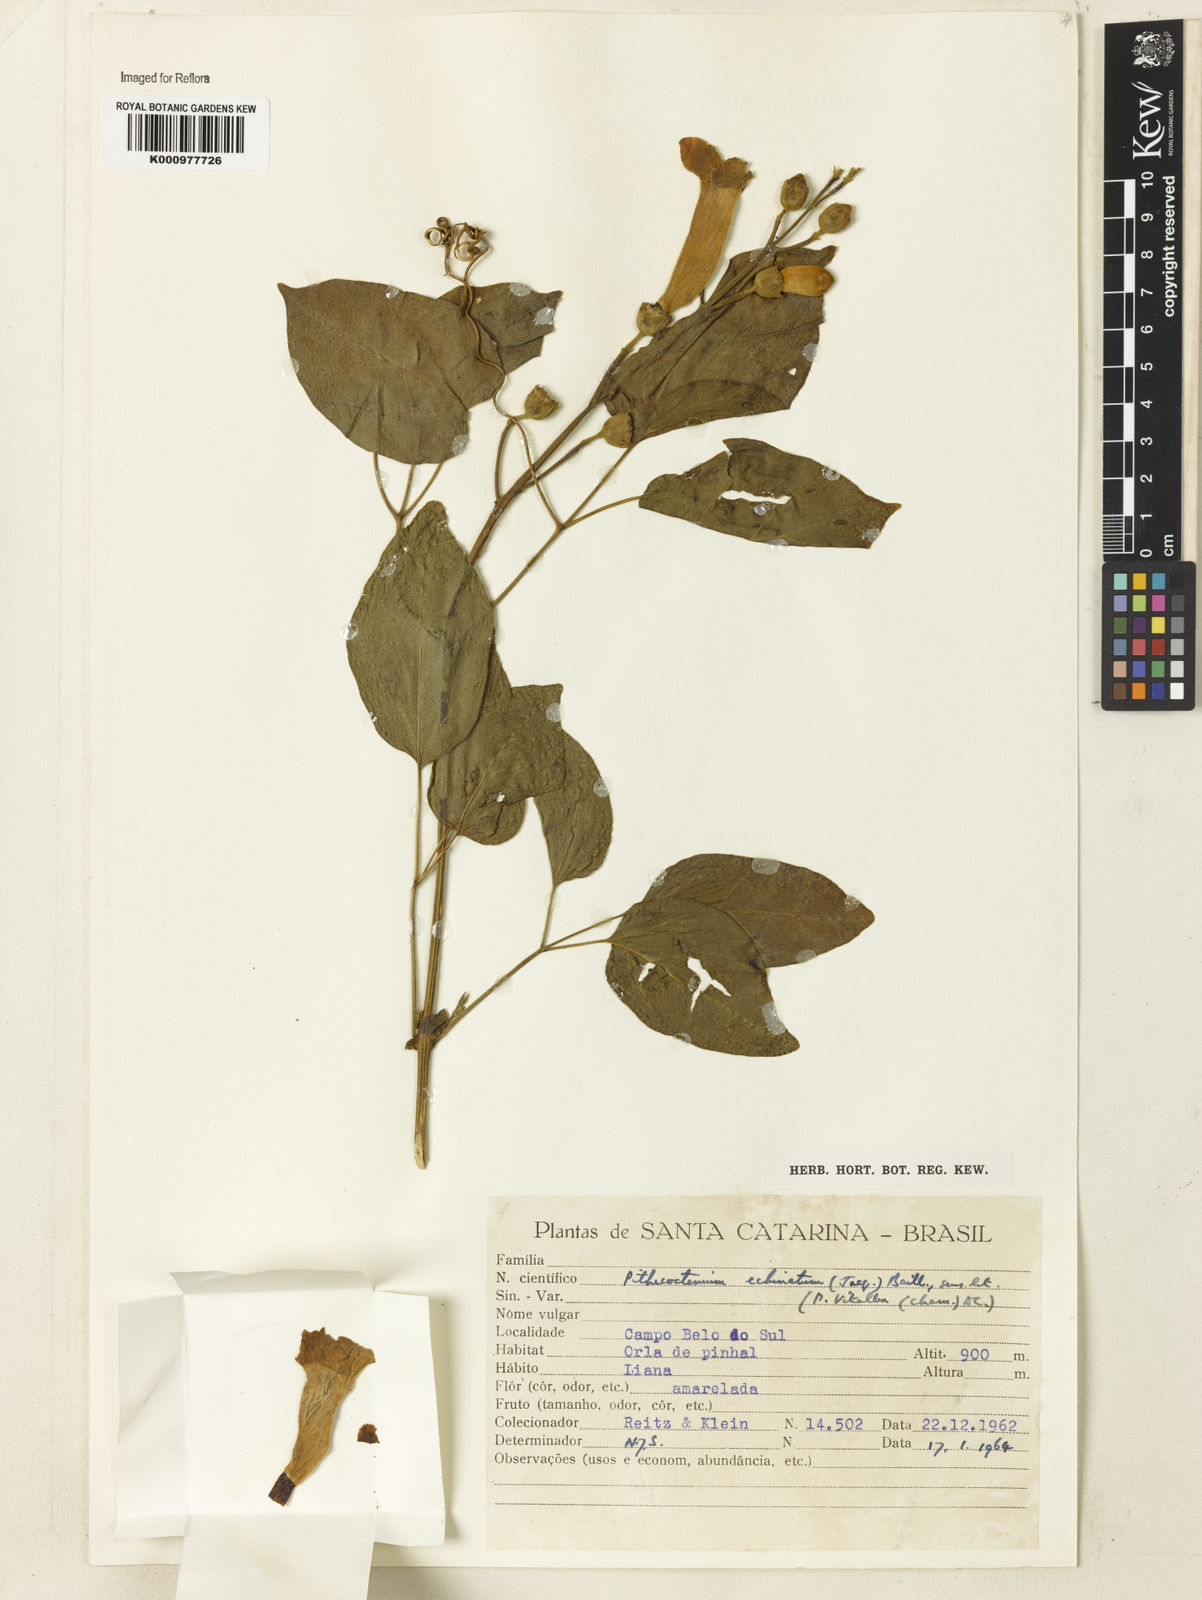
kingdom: Plantae
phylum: Tracheophyta
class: Magnoliopsida
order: Lamiales
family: Bignoniaceae
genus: Amphilophium
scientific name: Amphilophium crucigerum
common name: Monkey comb
